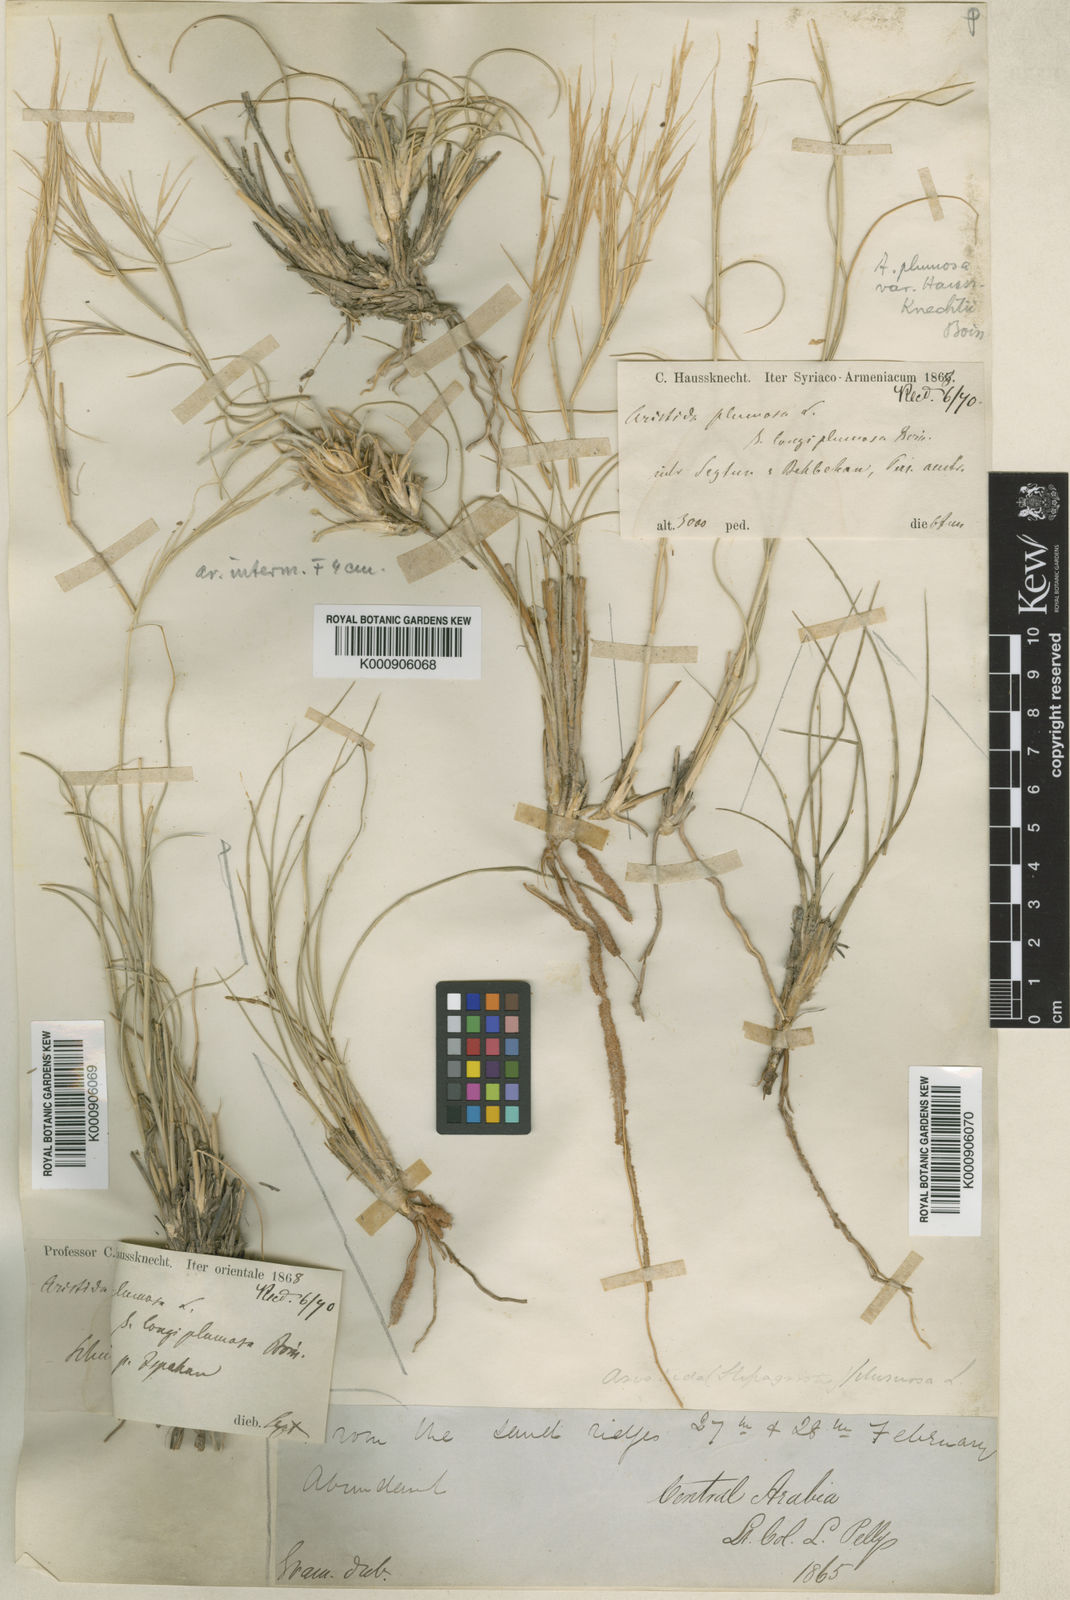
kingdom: Plantae
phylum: Tracheophyta
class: Liliopsida
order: Poales
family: Poaceae
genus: Stipagrostis
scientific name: Stipagrostis plumosa
